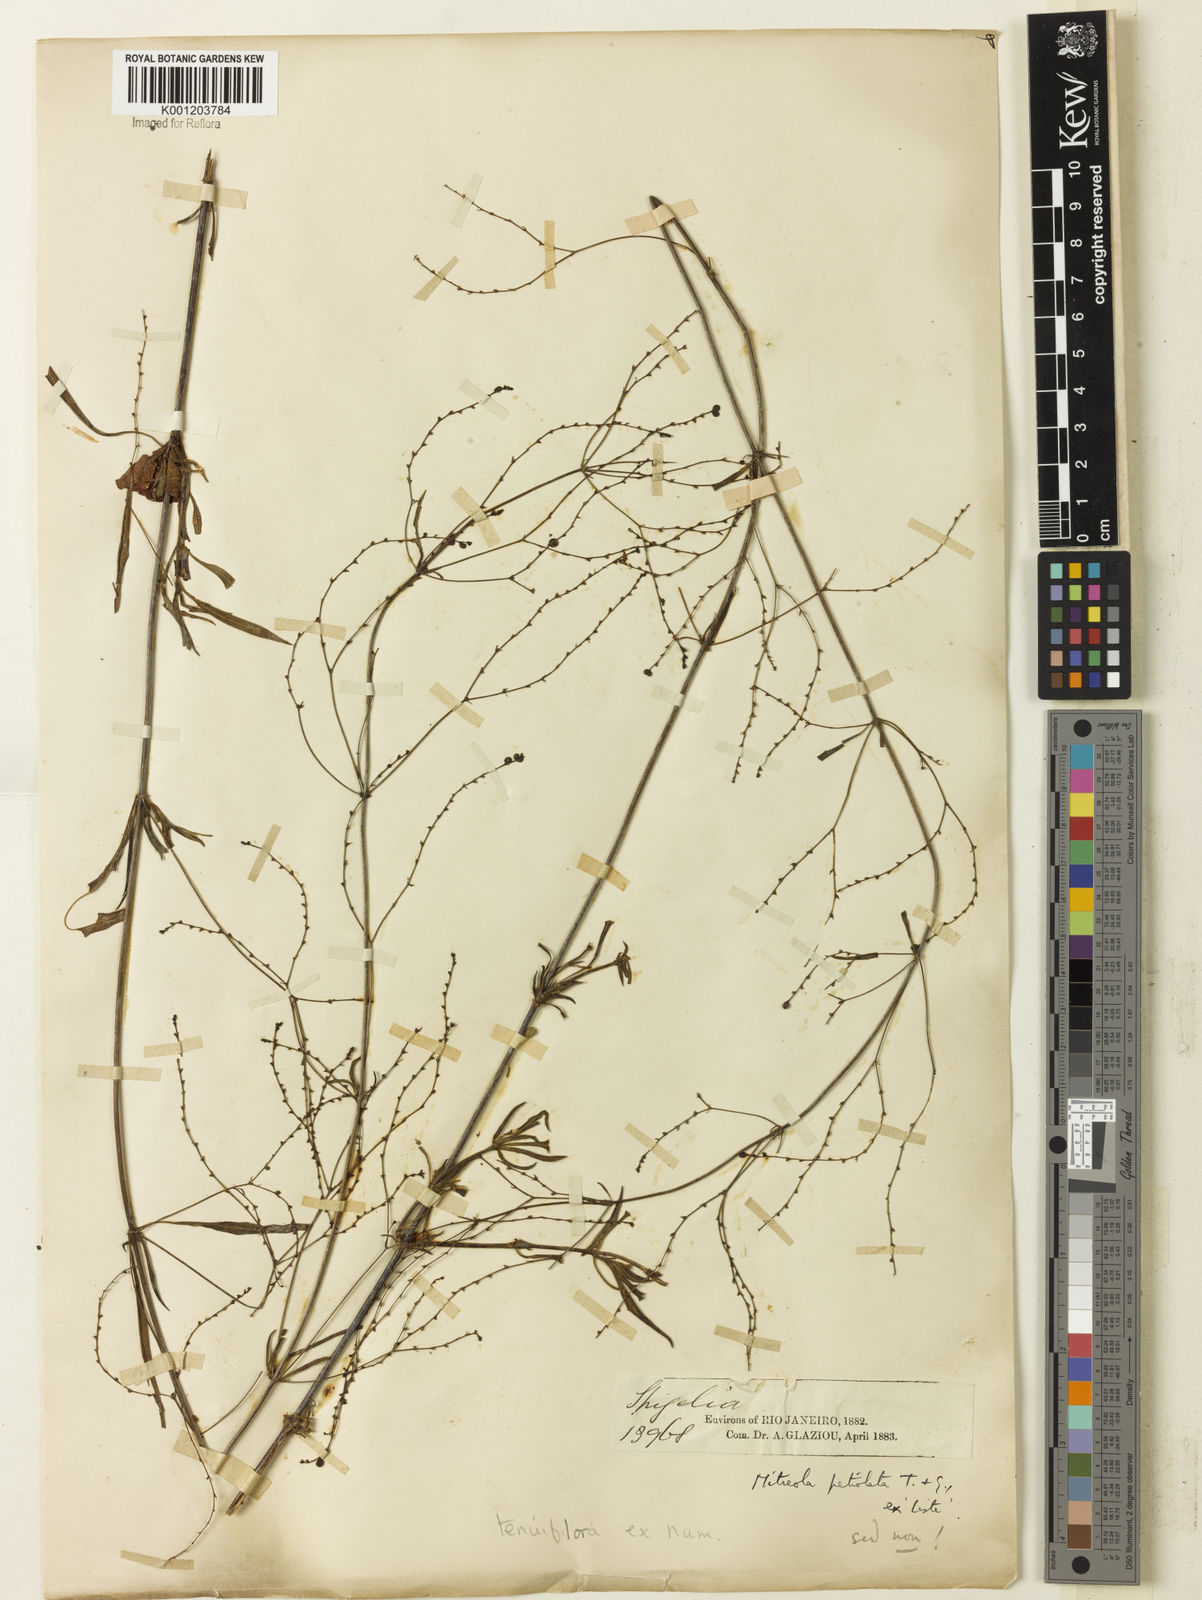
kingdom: Plantae
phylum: Tracheophyta
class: Magnoliopsida
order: Gentianales
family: Rubiaceae
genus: Declieuxia
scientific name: Declieuxia tenuiflora
